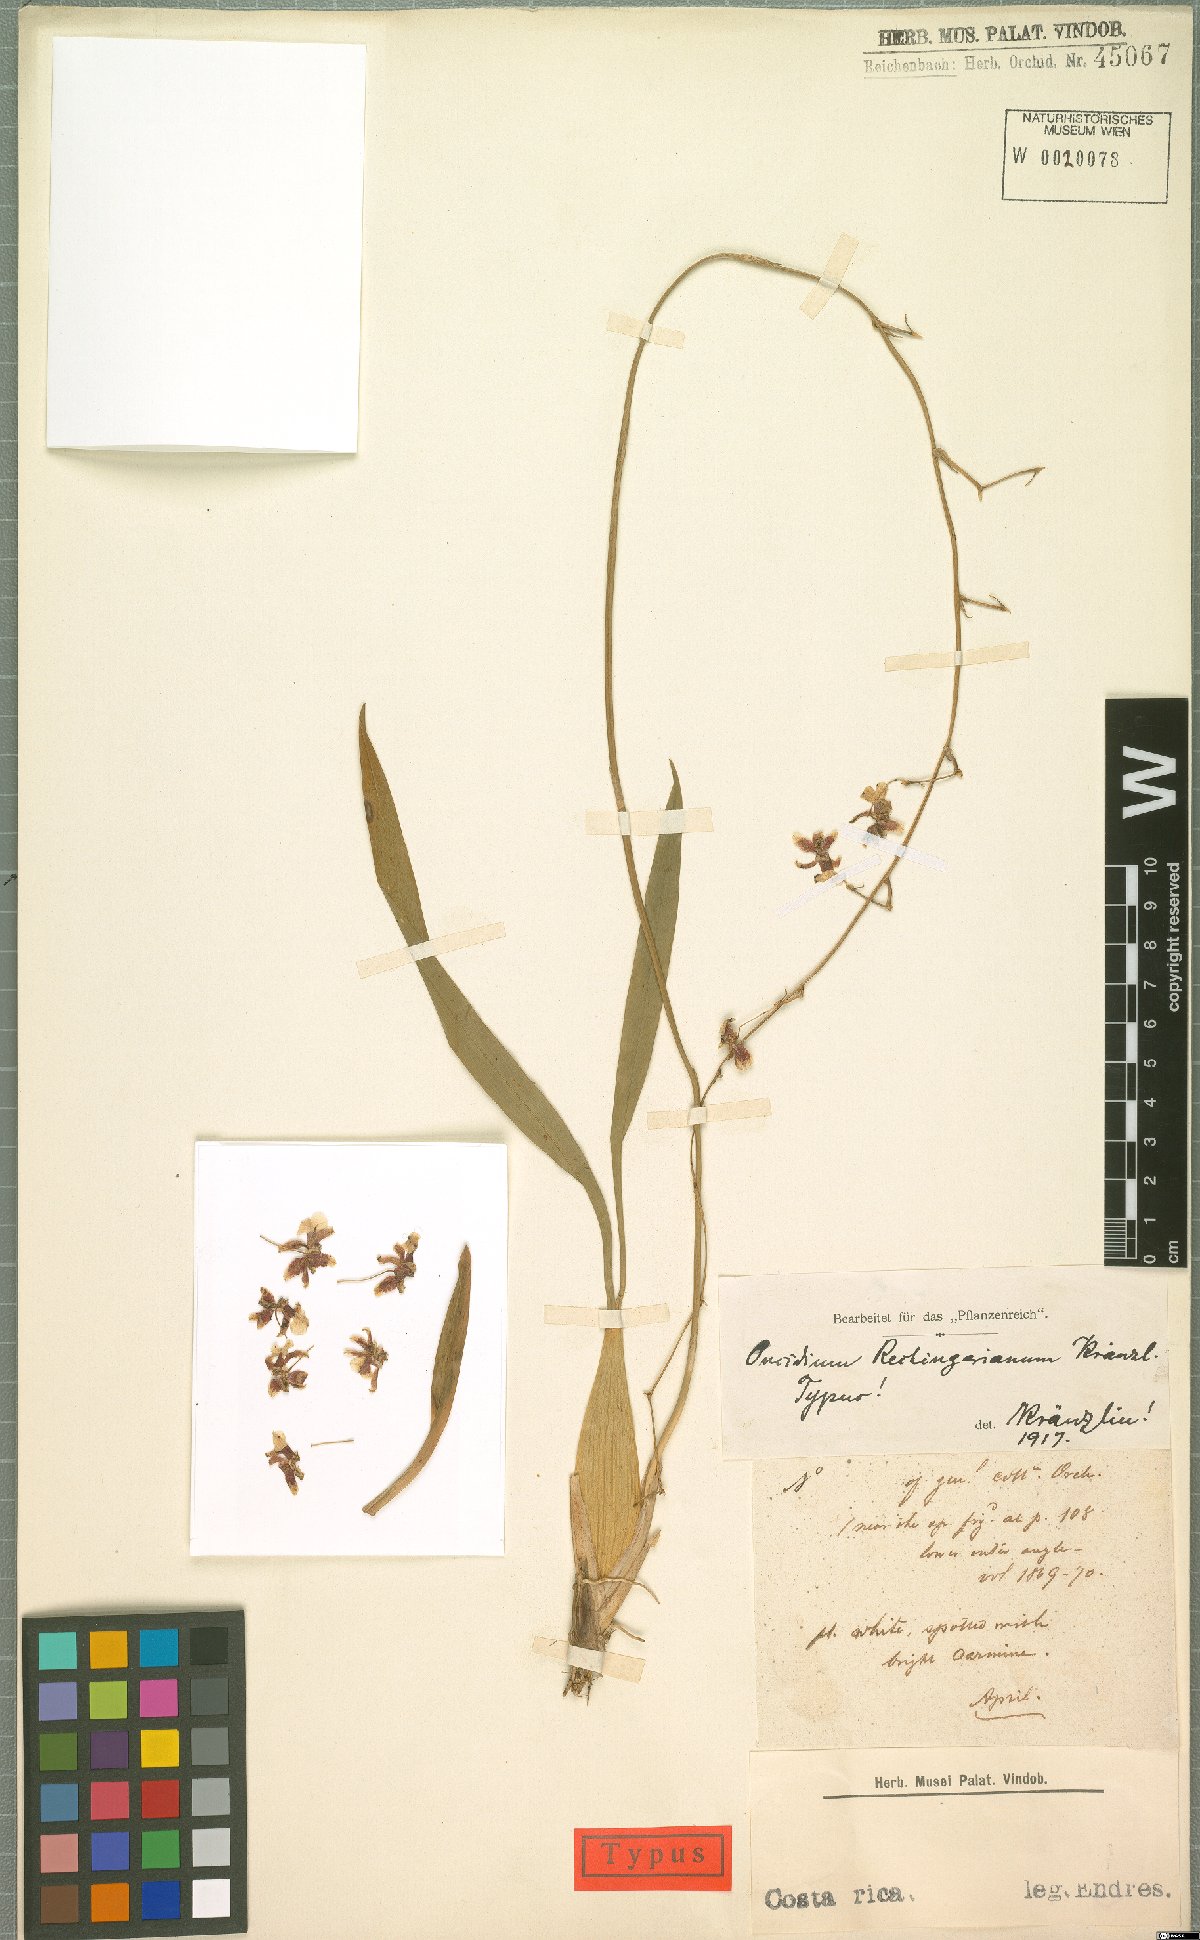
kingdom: Plantae
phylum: Tracheophyta
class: Liliopsida
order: Asparagales
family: Orchidaceae
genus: Oncidium
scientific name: Oncidium dichromaticum
